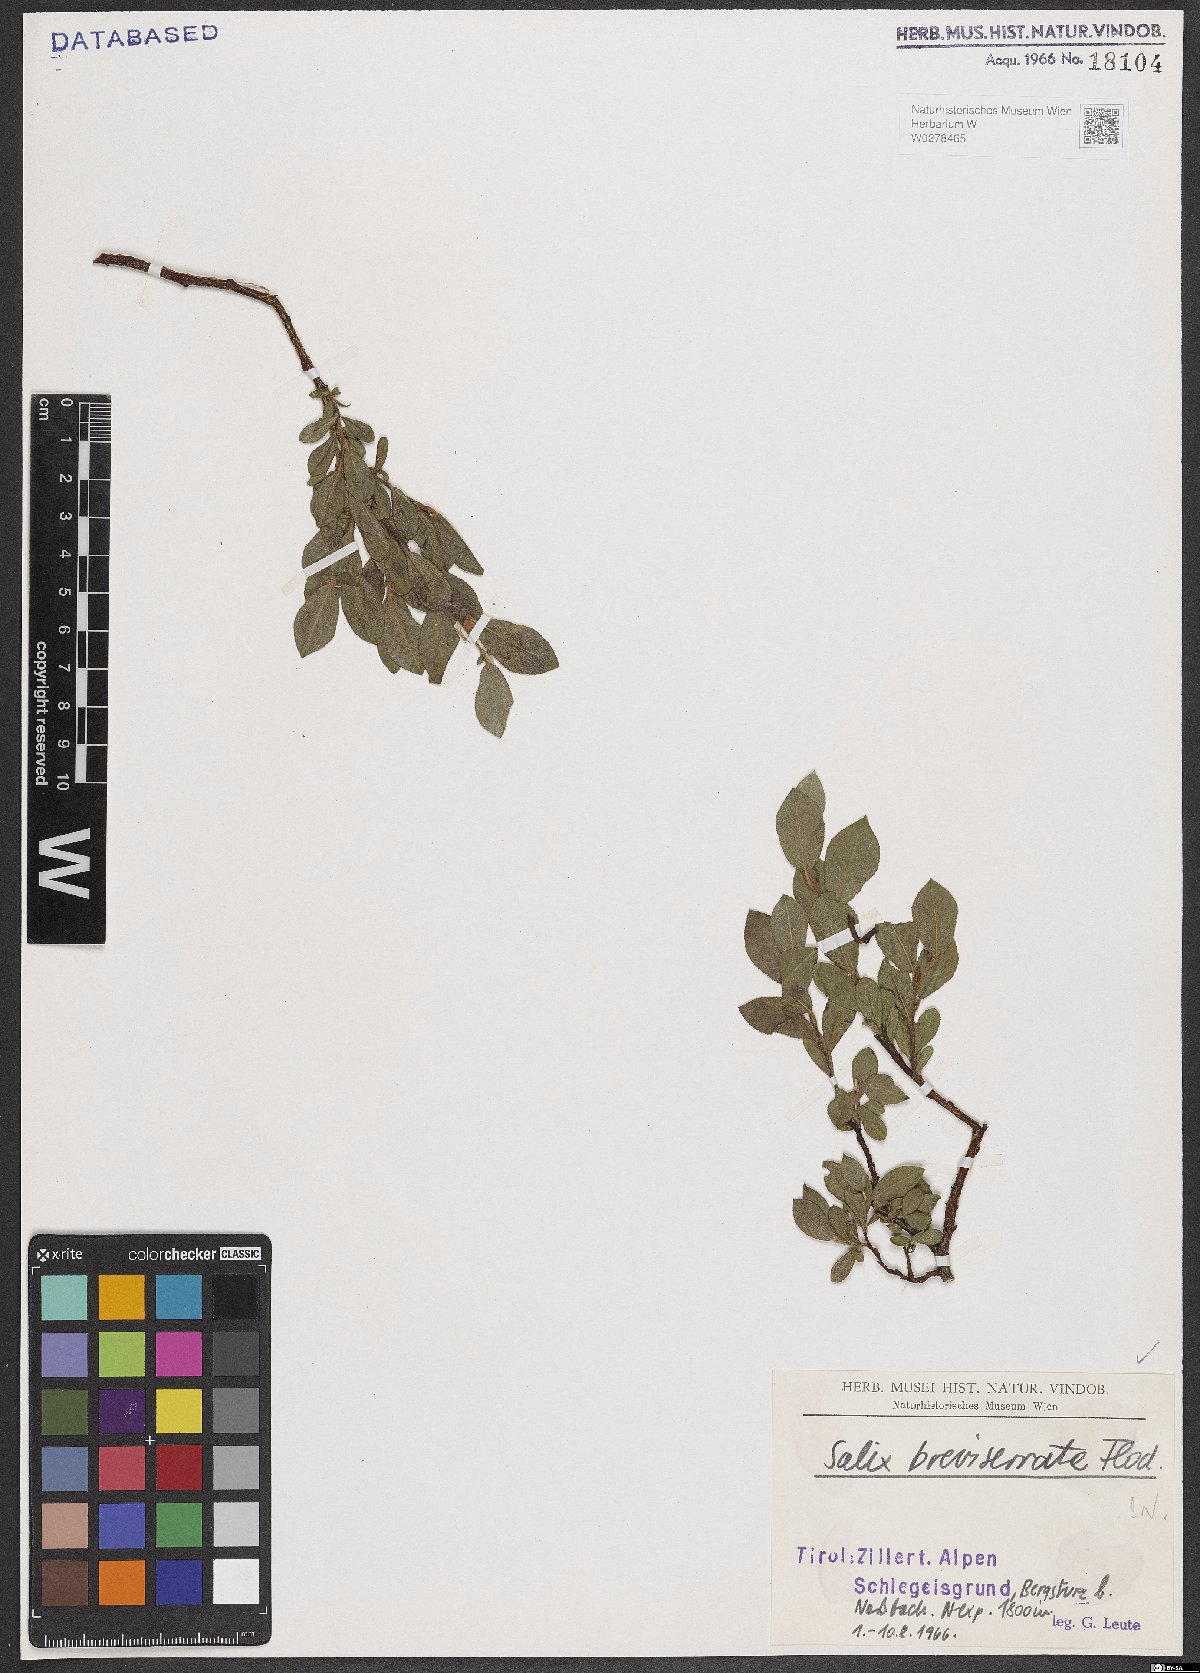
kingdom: Plantae
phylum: Tracheophyta
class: Magnoliopsida
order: Malpighiales
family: Salicaceae
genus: Salix
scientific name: Salix breviserrata
